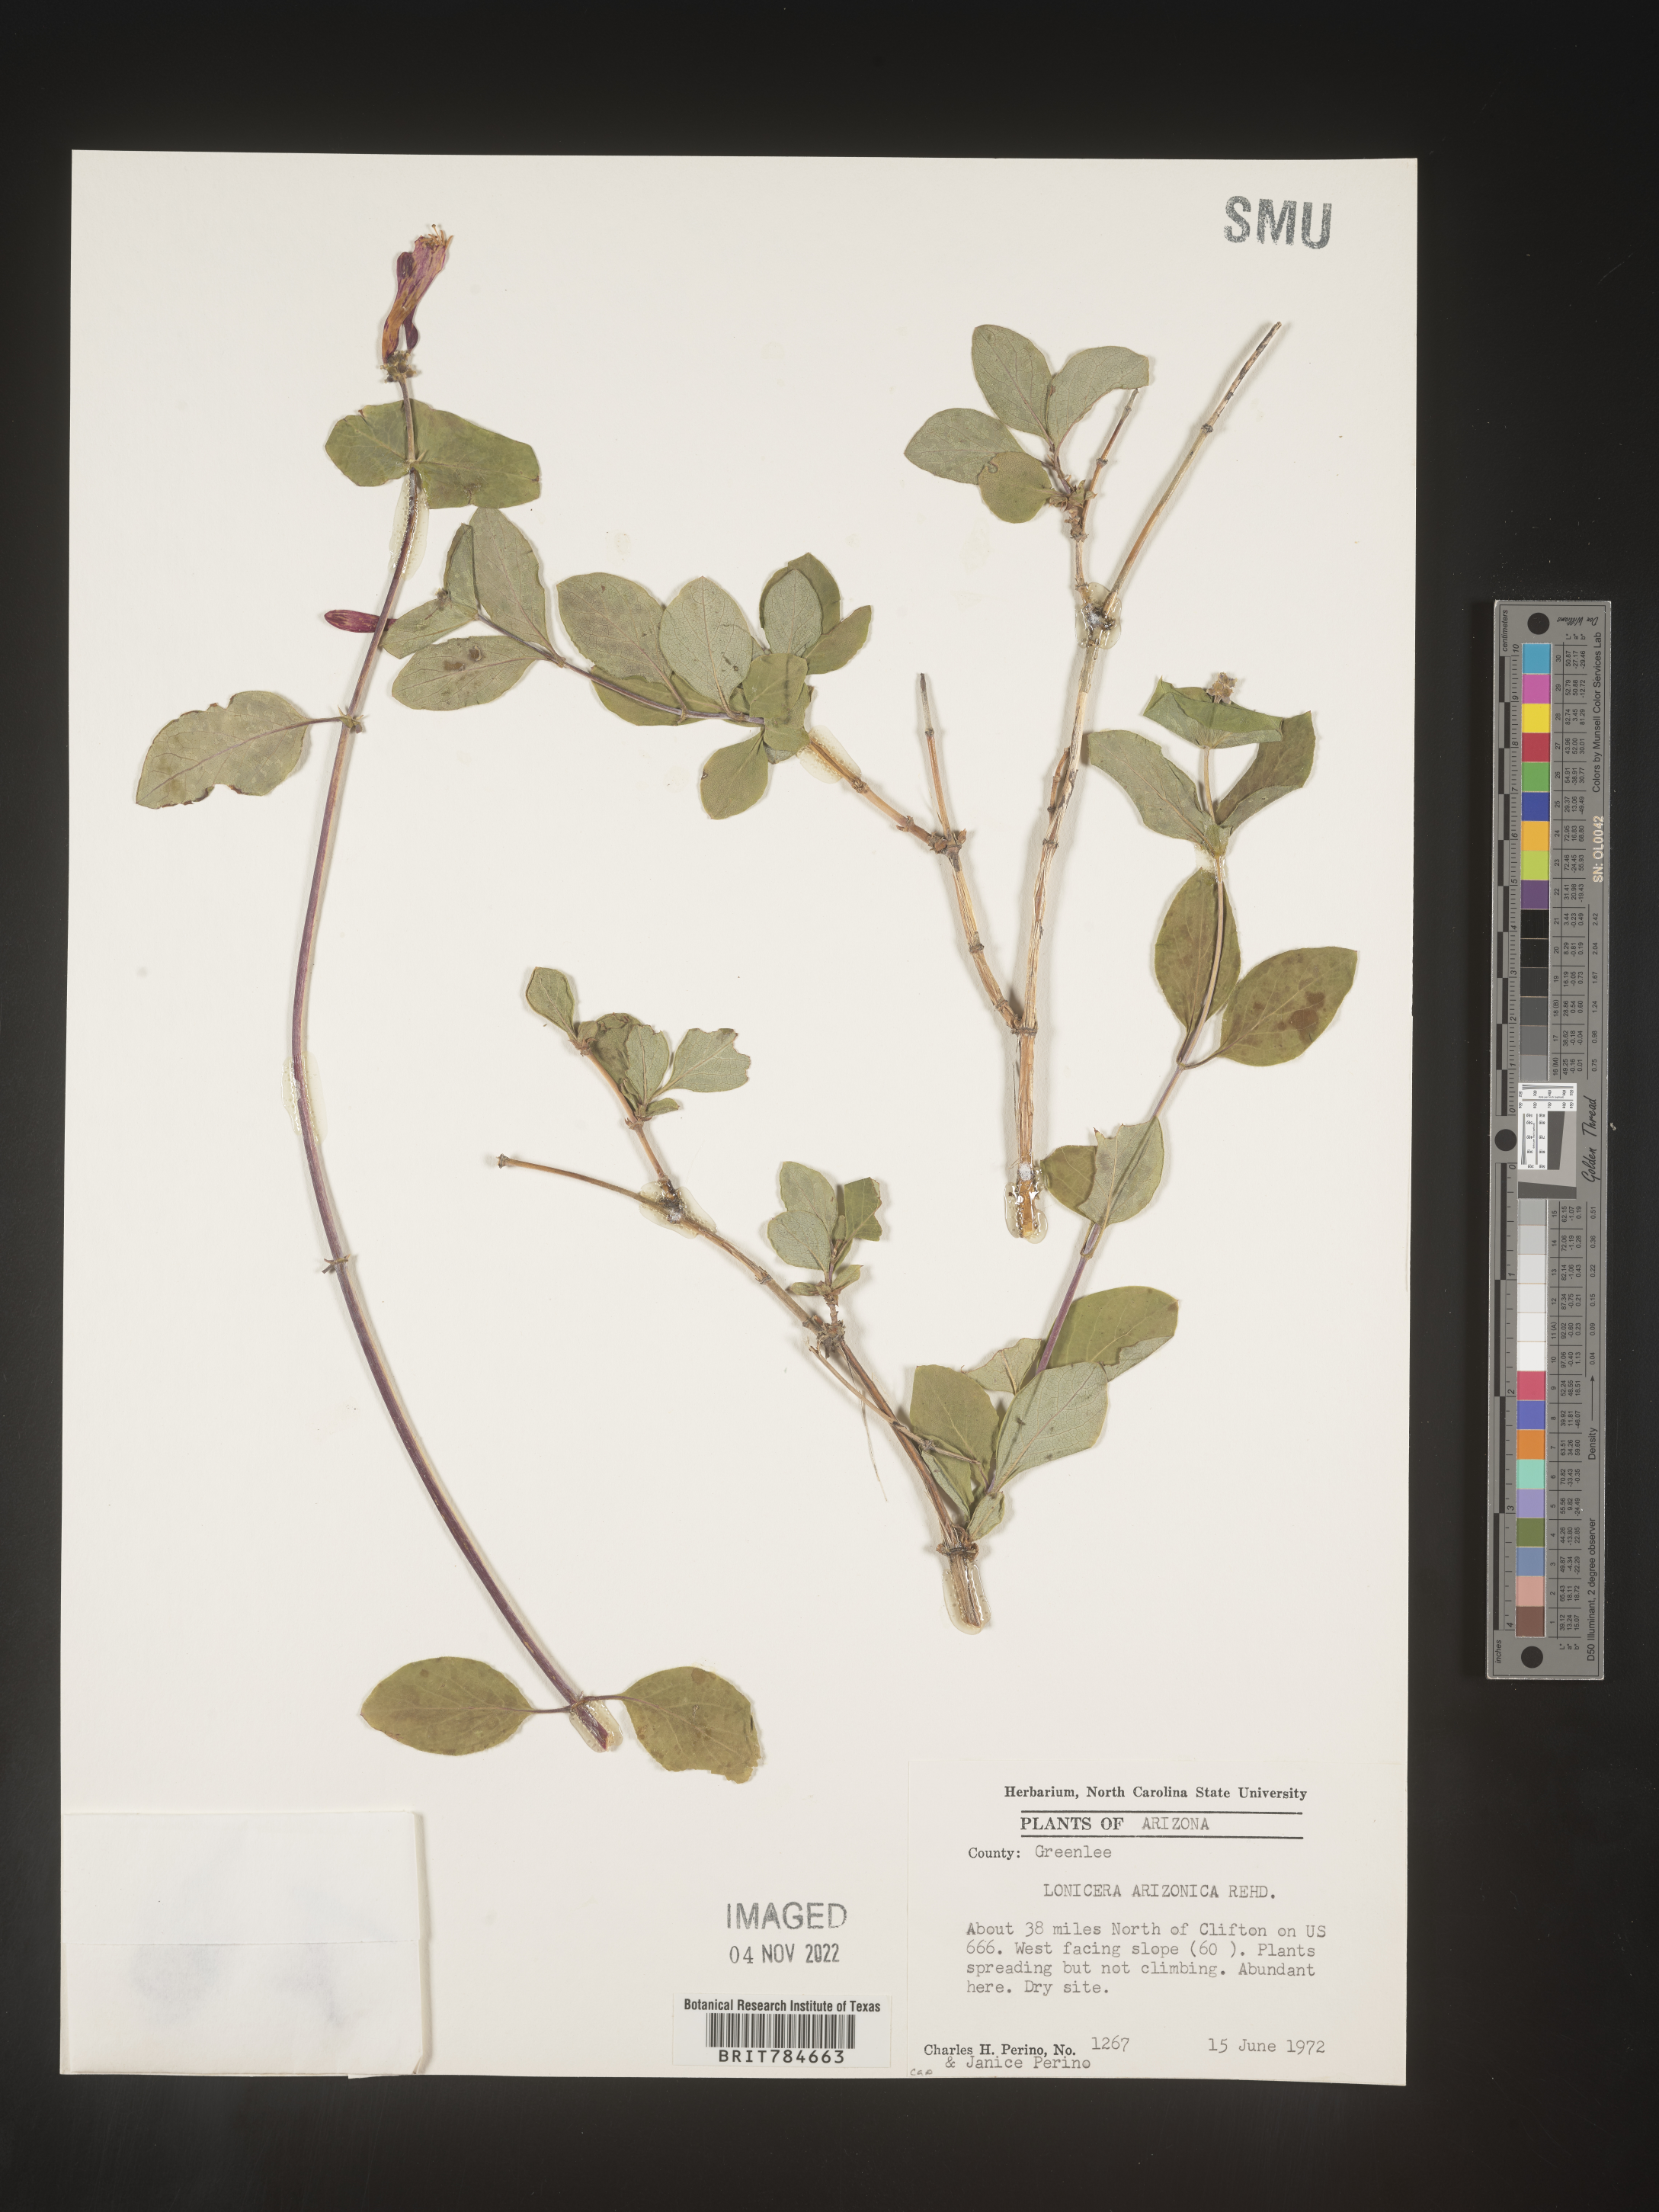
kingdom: Plantae
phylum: Tracheophyta
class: Magnoliopsida
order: Dipsacales
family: Caprifoliaceae
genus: Lonicera
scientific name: Lonicera arizonica
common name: Arizona honeysuckle
